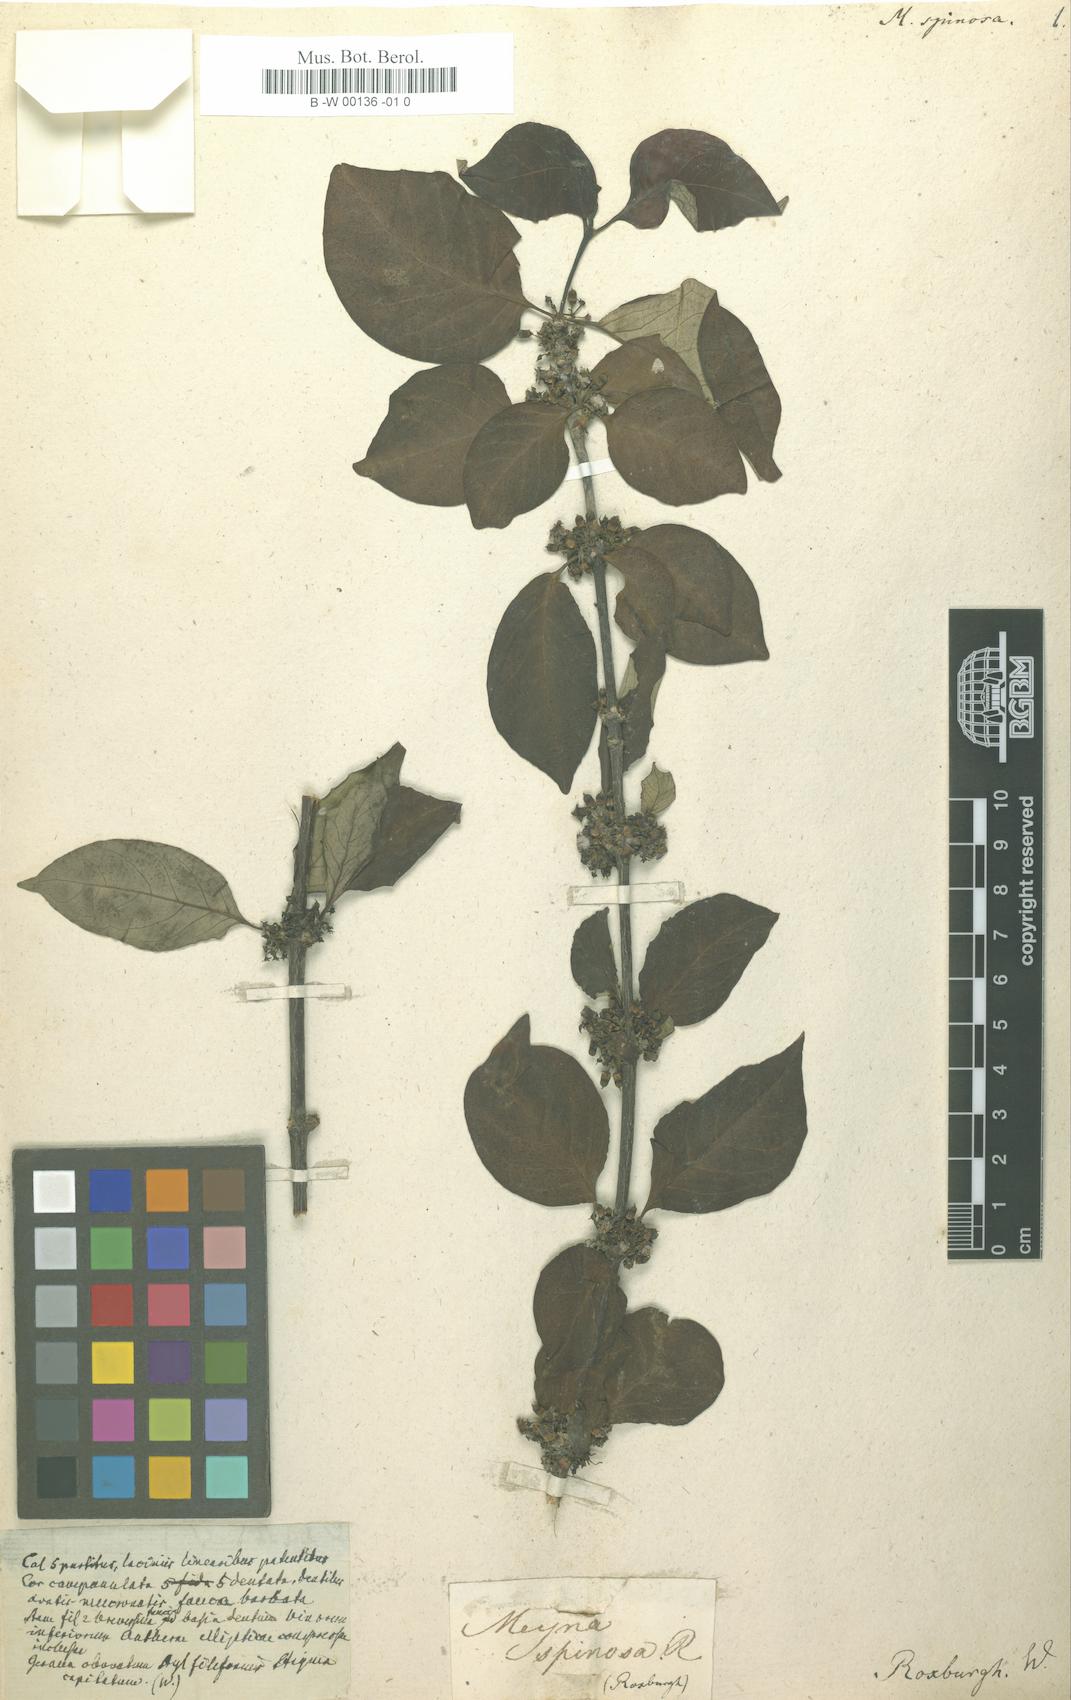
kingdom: Plantae
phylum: Tracheophyta
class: Magnoliopsida
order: Gentianales
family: Rubiaceae
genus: Meyna
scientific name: Meyna spinosa
